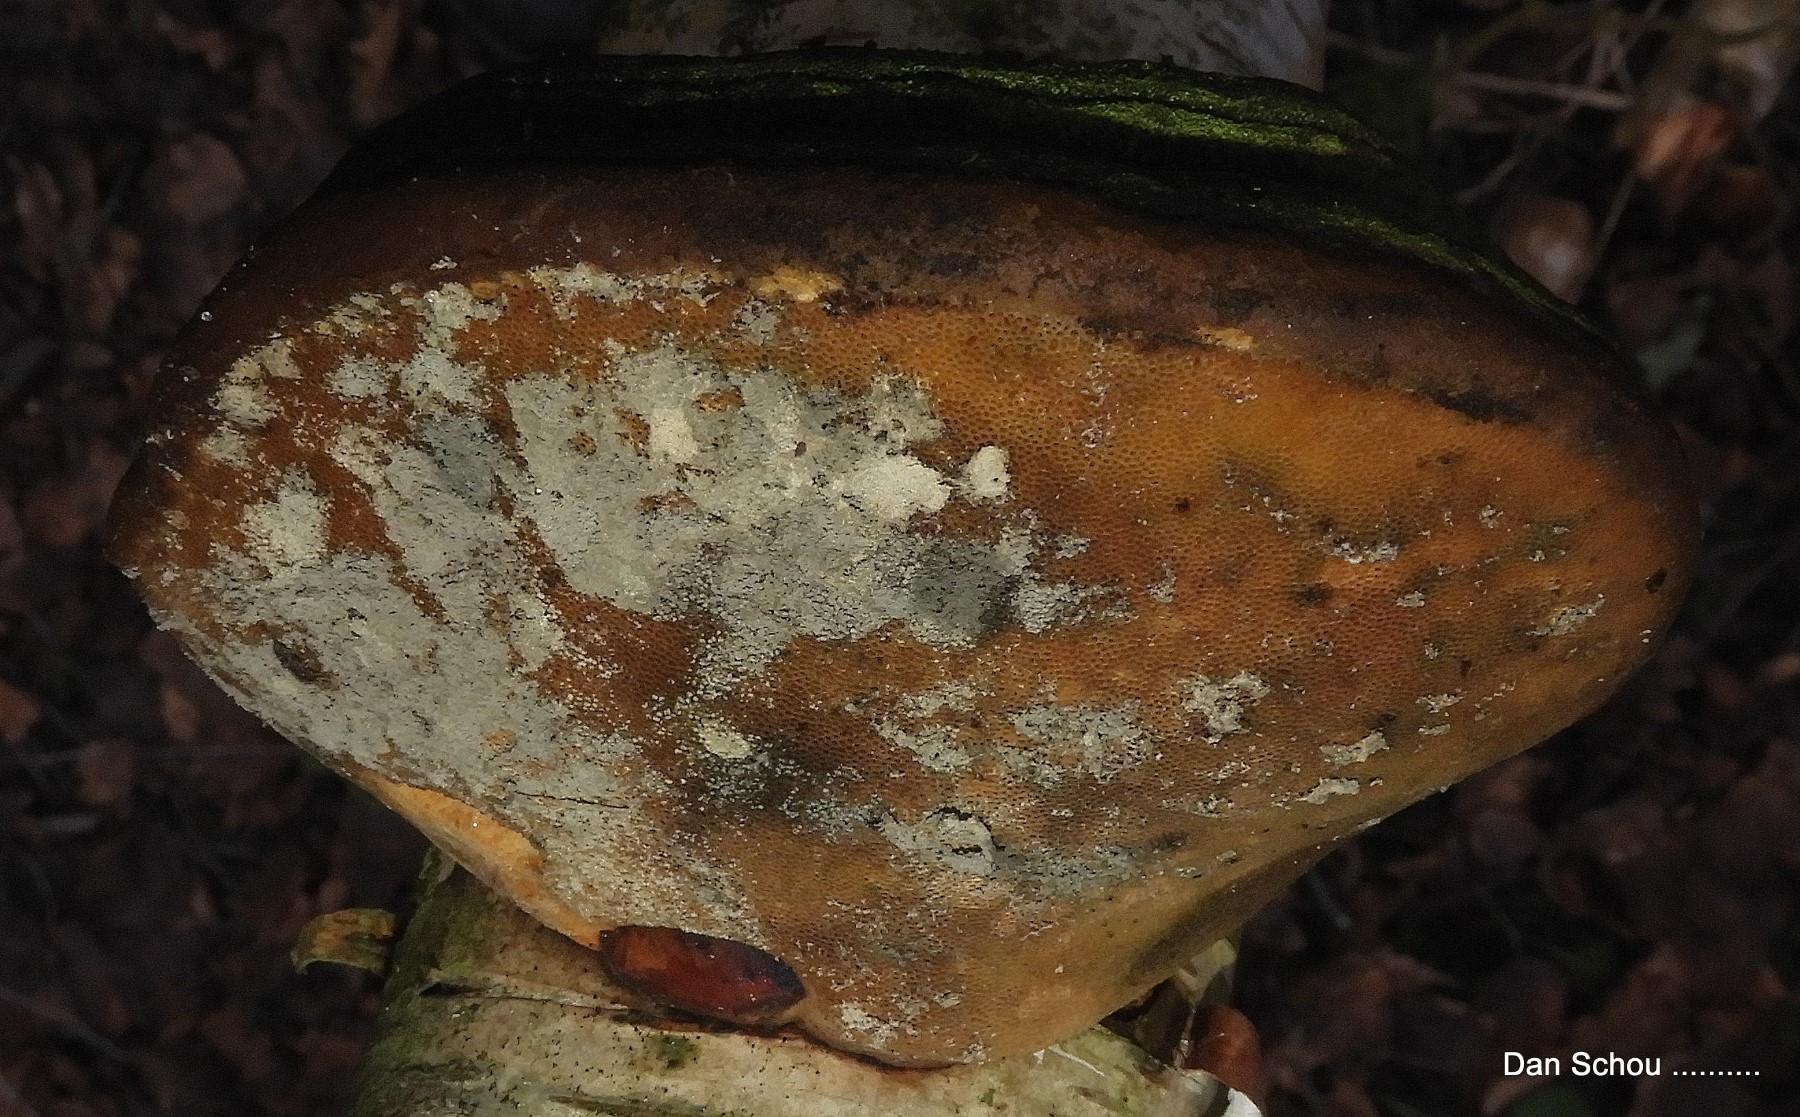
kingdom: Fungi
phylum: Basidiomycota
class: Agaricomycetes
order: Polyporales
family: Polyporaceae
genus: Fomes
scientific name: Fomes fomentarius
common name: tøndersvamp
